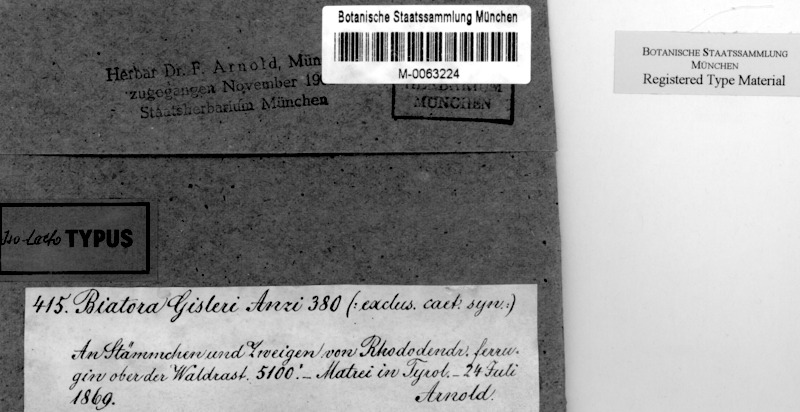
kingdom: Fungi
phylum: Ascomycota
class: Lecanoromycetes
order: Lecanorales
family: Lecanoraceae
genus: Lecanora
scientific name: Lecanora gisleriana
